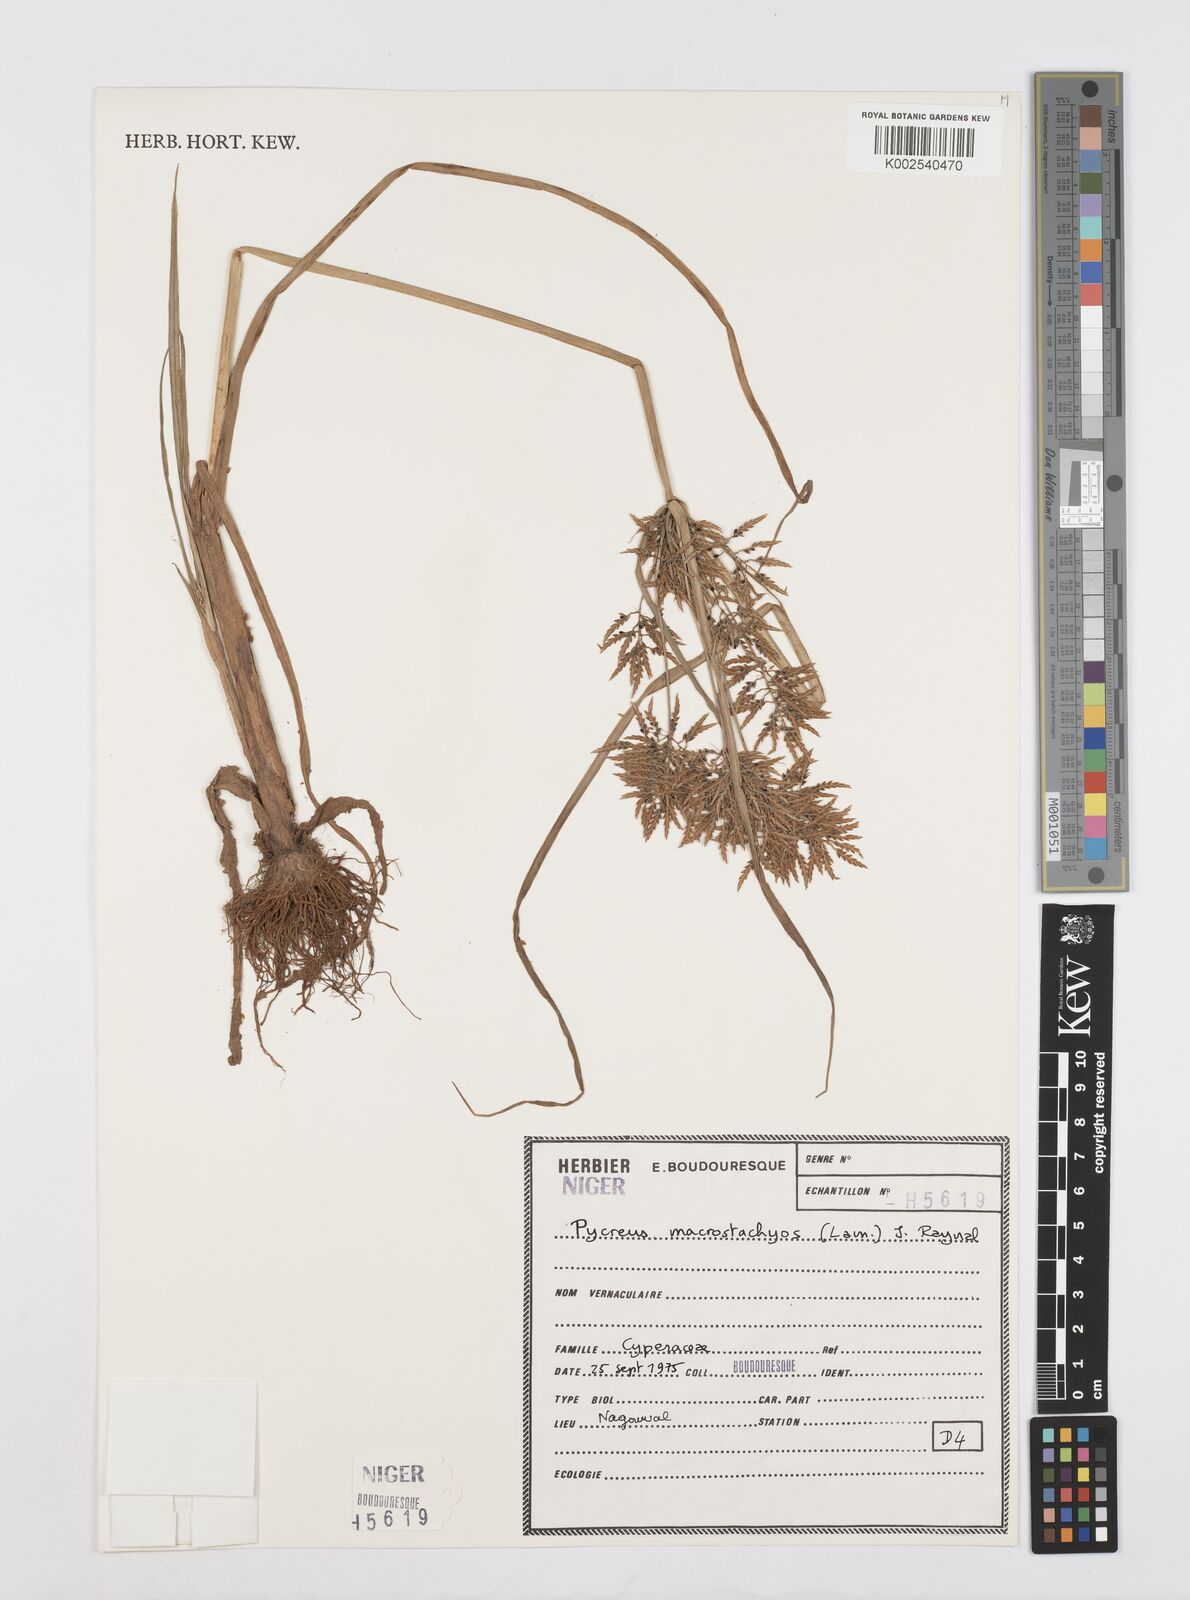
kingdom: Plantae
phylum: Tracheophyta
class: Liliopsida
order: Poales
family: Cyperaceae
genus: Cyperus
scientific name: Cyperus macrostachyos
